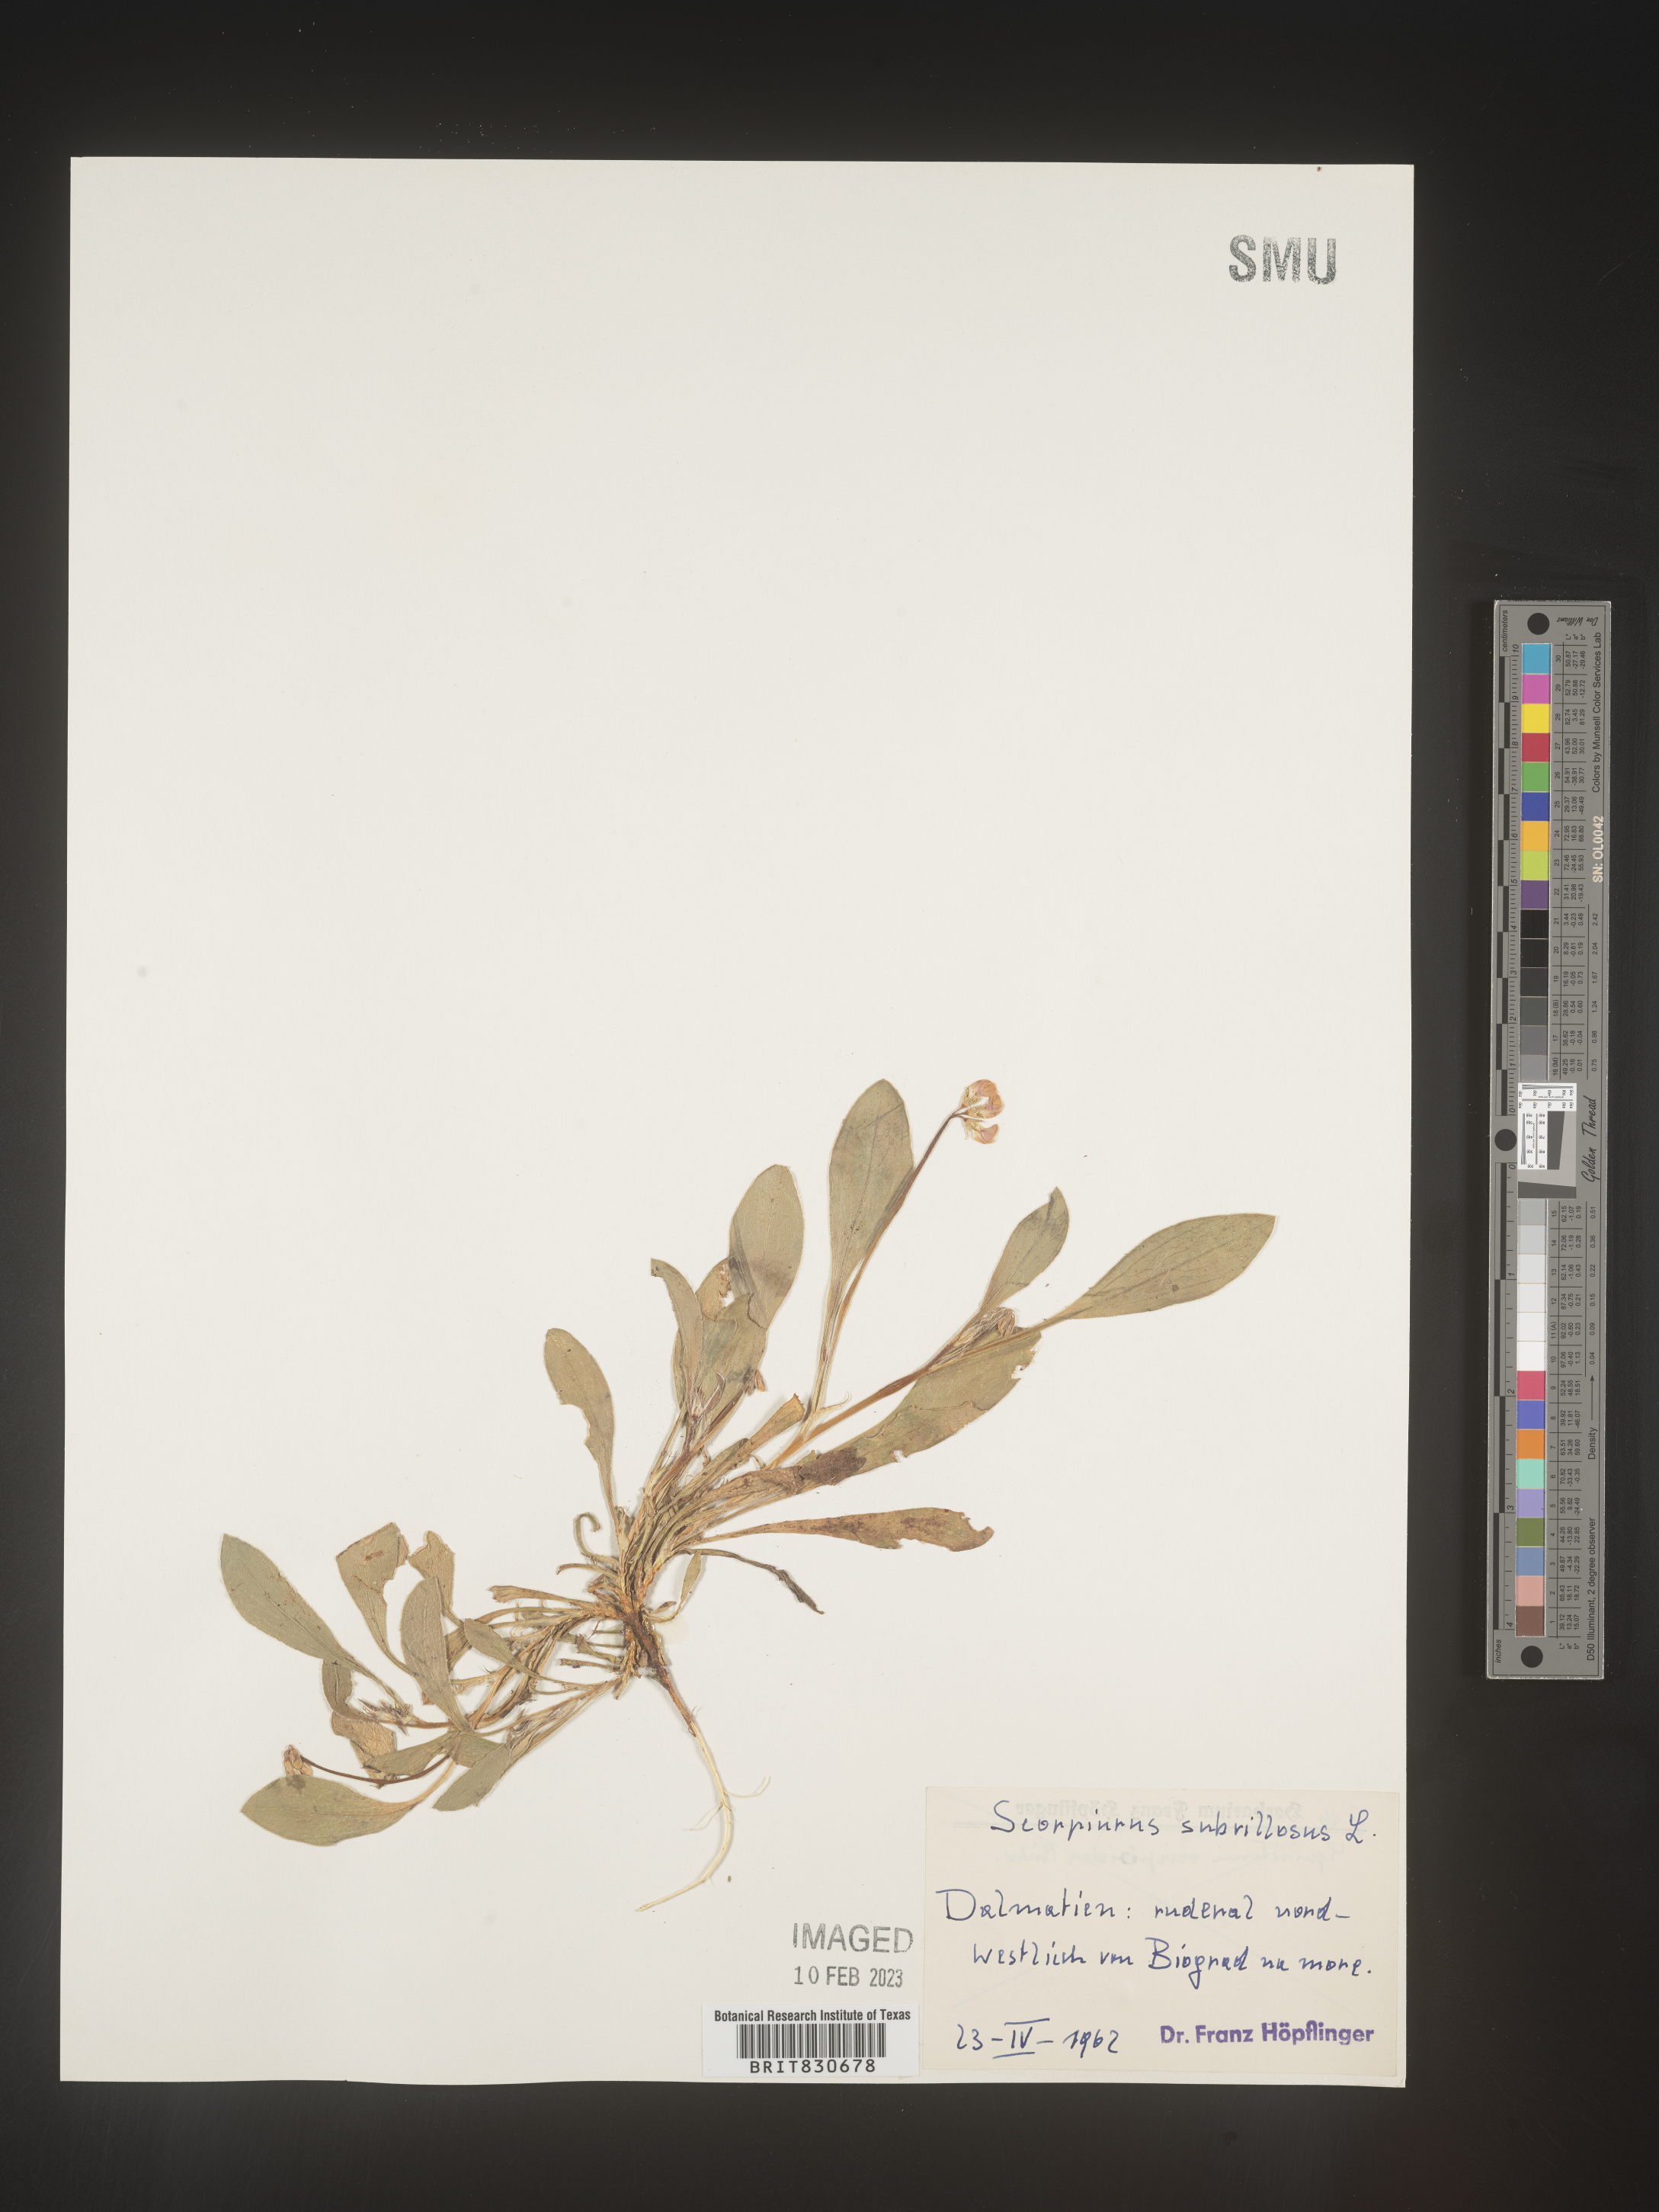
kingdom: Plantae
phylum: Tracheophyta
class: Magnoliopsida
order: Fabales
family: Fabaceae
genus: Scorpiurus
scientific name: Scorpiurus
